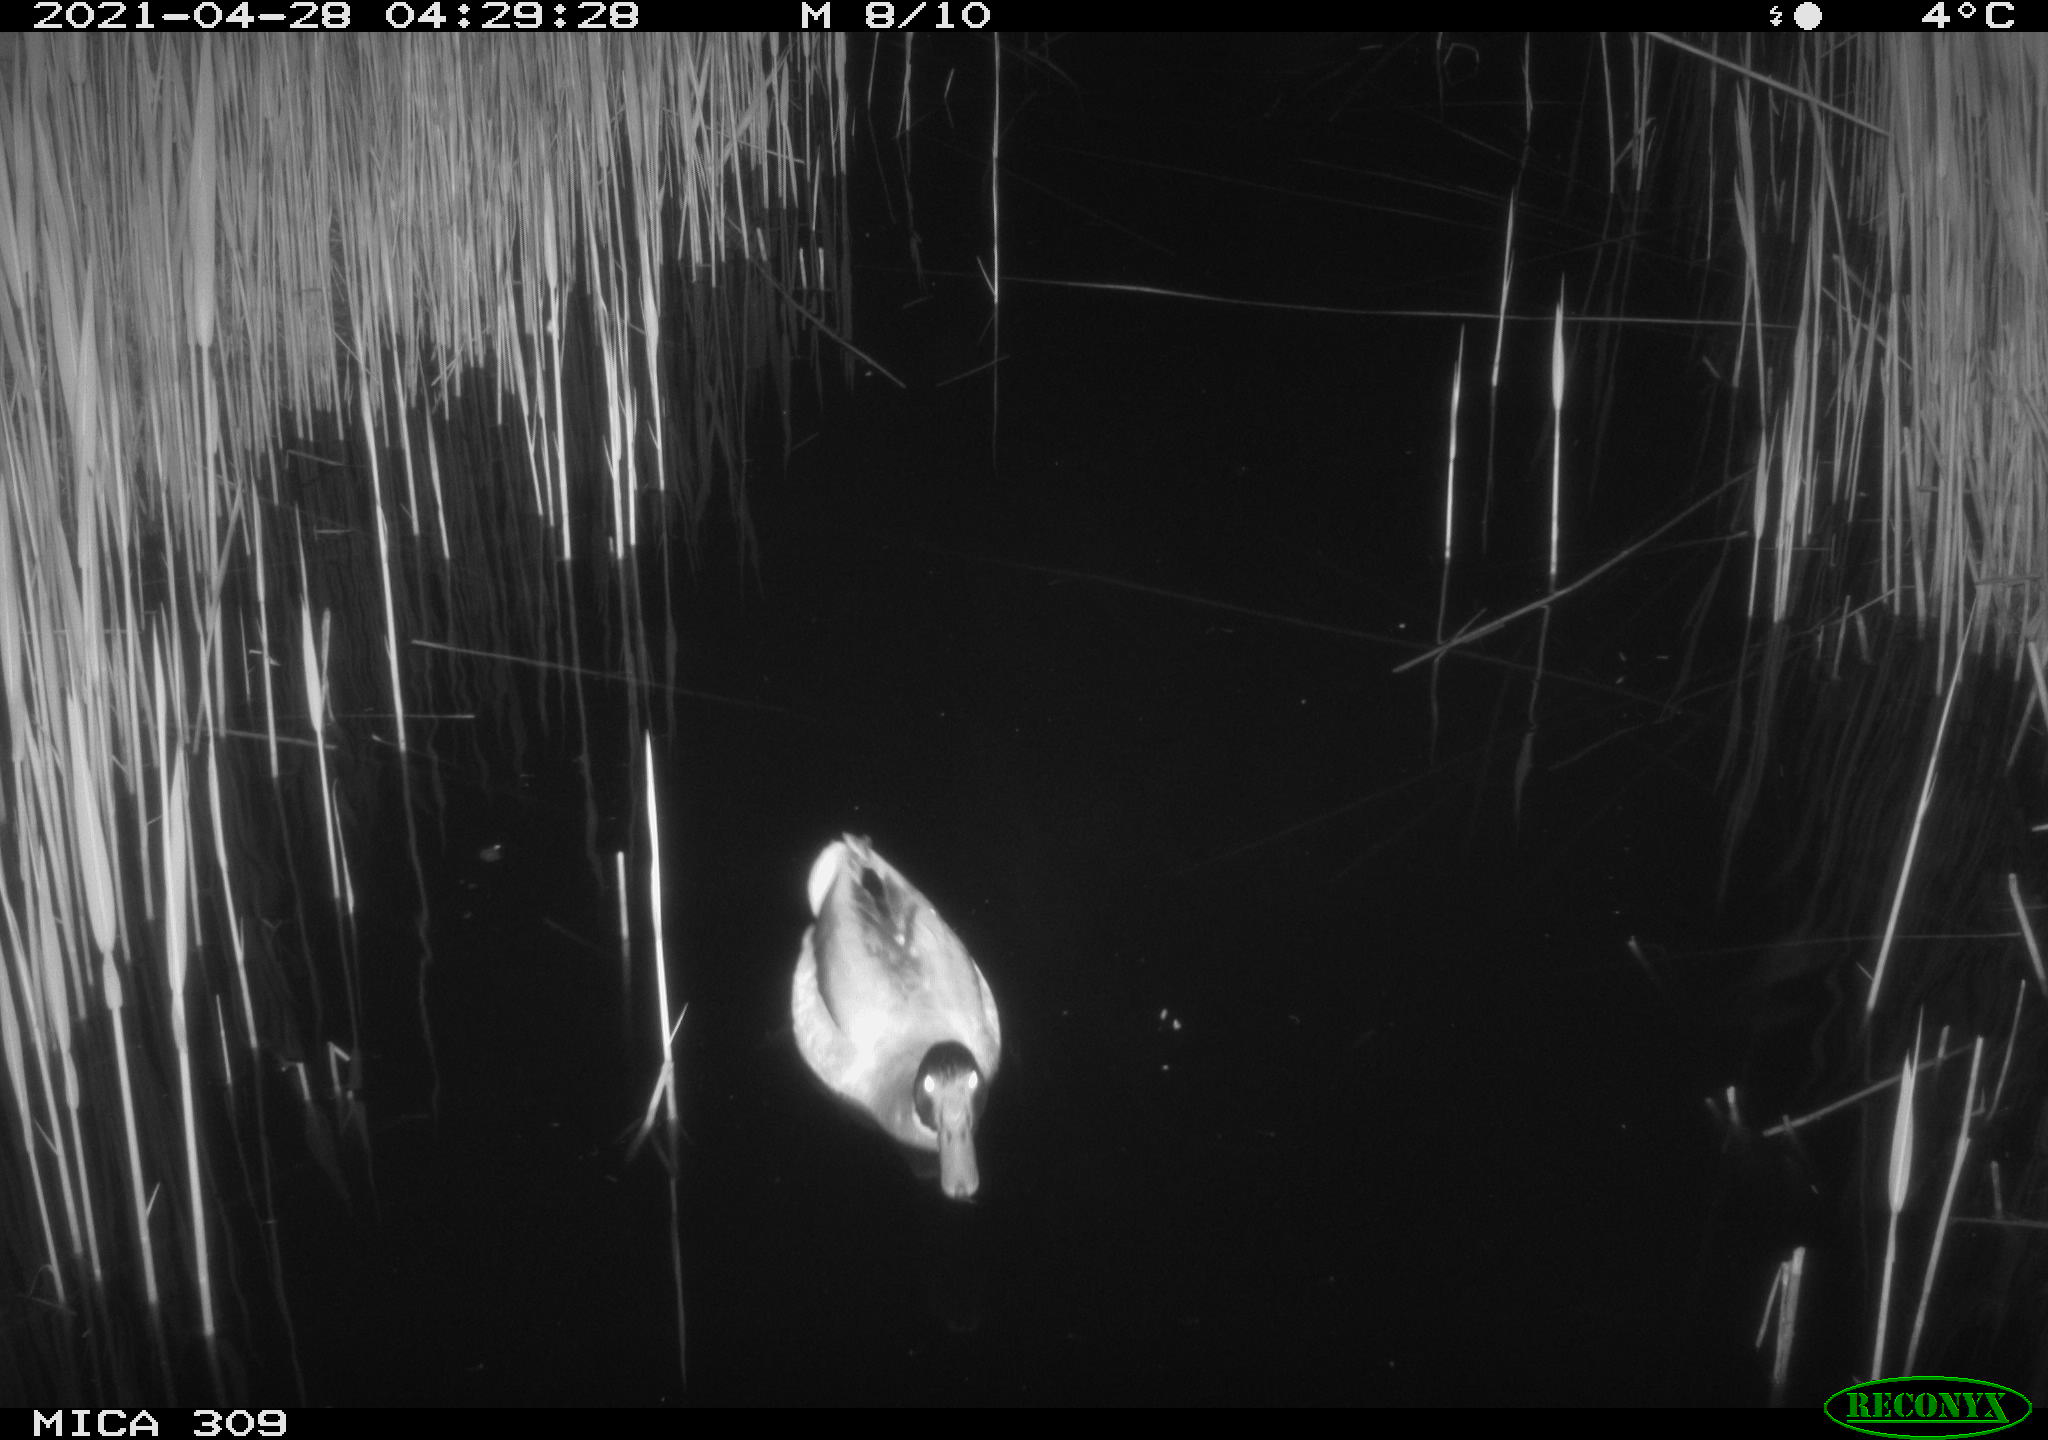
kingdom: Animalia
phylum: Chordata
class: Aves
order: Anseriformes
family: Anatidae
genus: Anas
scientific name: Anas platyrhynchos
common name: Mallard
